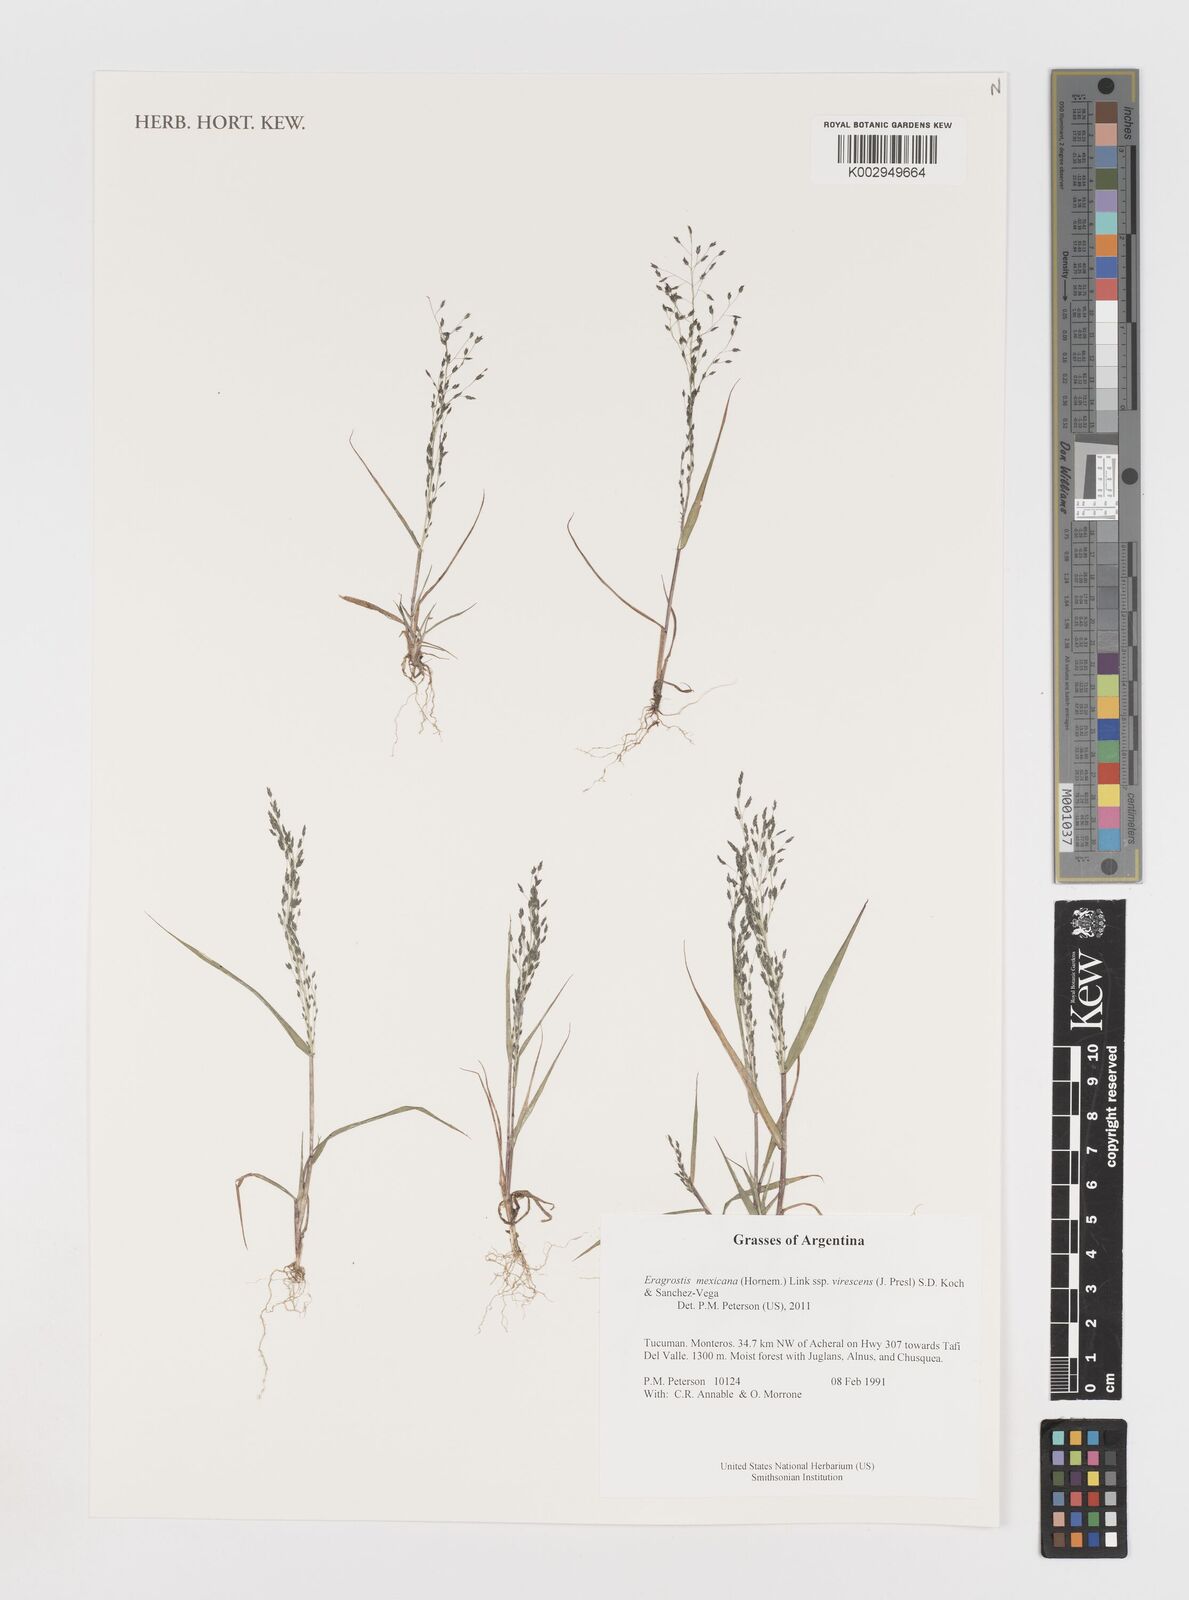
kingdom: Plantae
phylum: Tracheophyta
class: Liliopsida
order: Poales
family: Poaceae
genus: Eragrostis
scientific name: Eragrostis mexicana
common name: Mexican love grass
